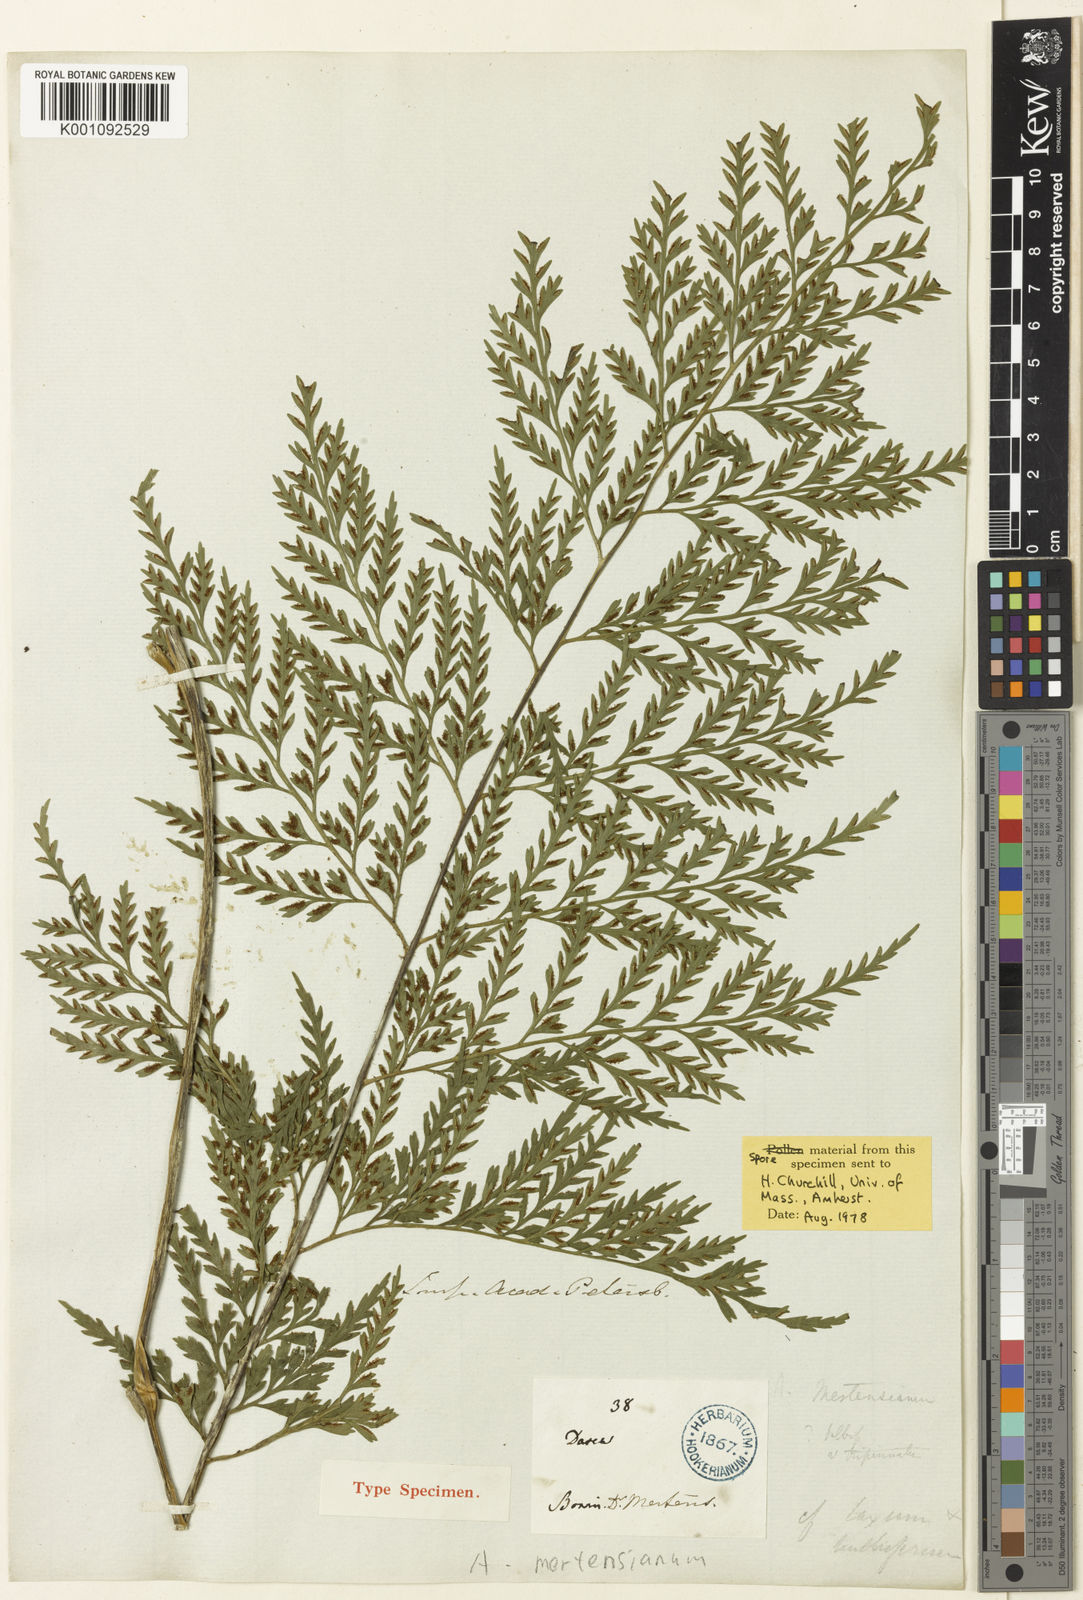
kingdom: Plantae
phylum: Tracheophyta
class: Polypodiopsida
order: Polypodiales
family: Aspleniaceae
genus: Asplenium
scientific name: Asplenium trigonopterum
